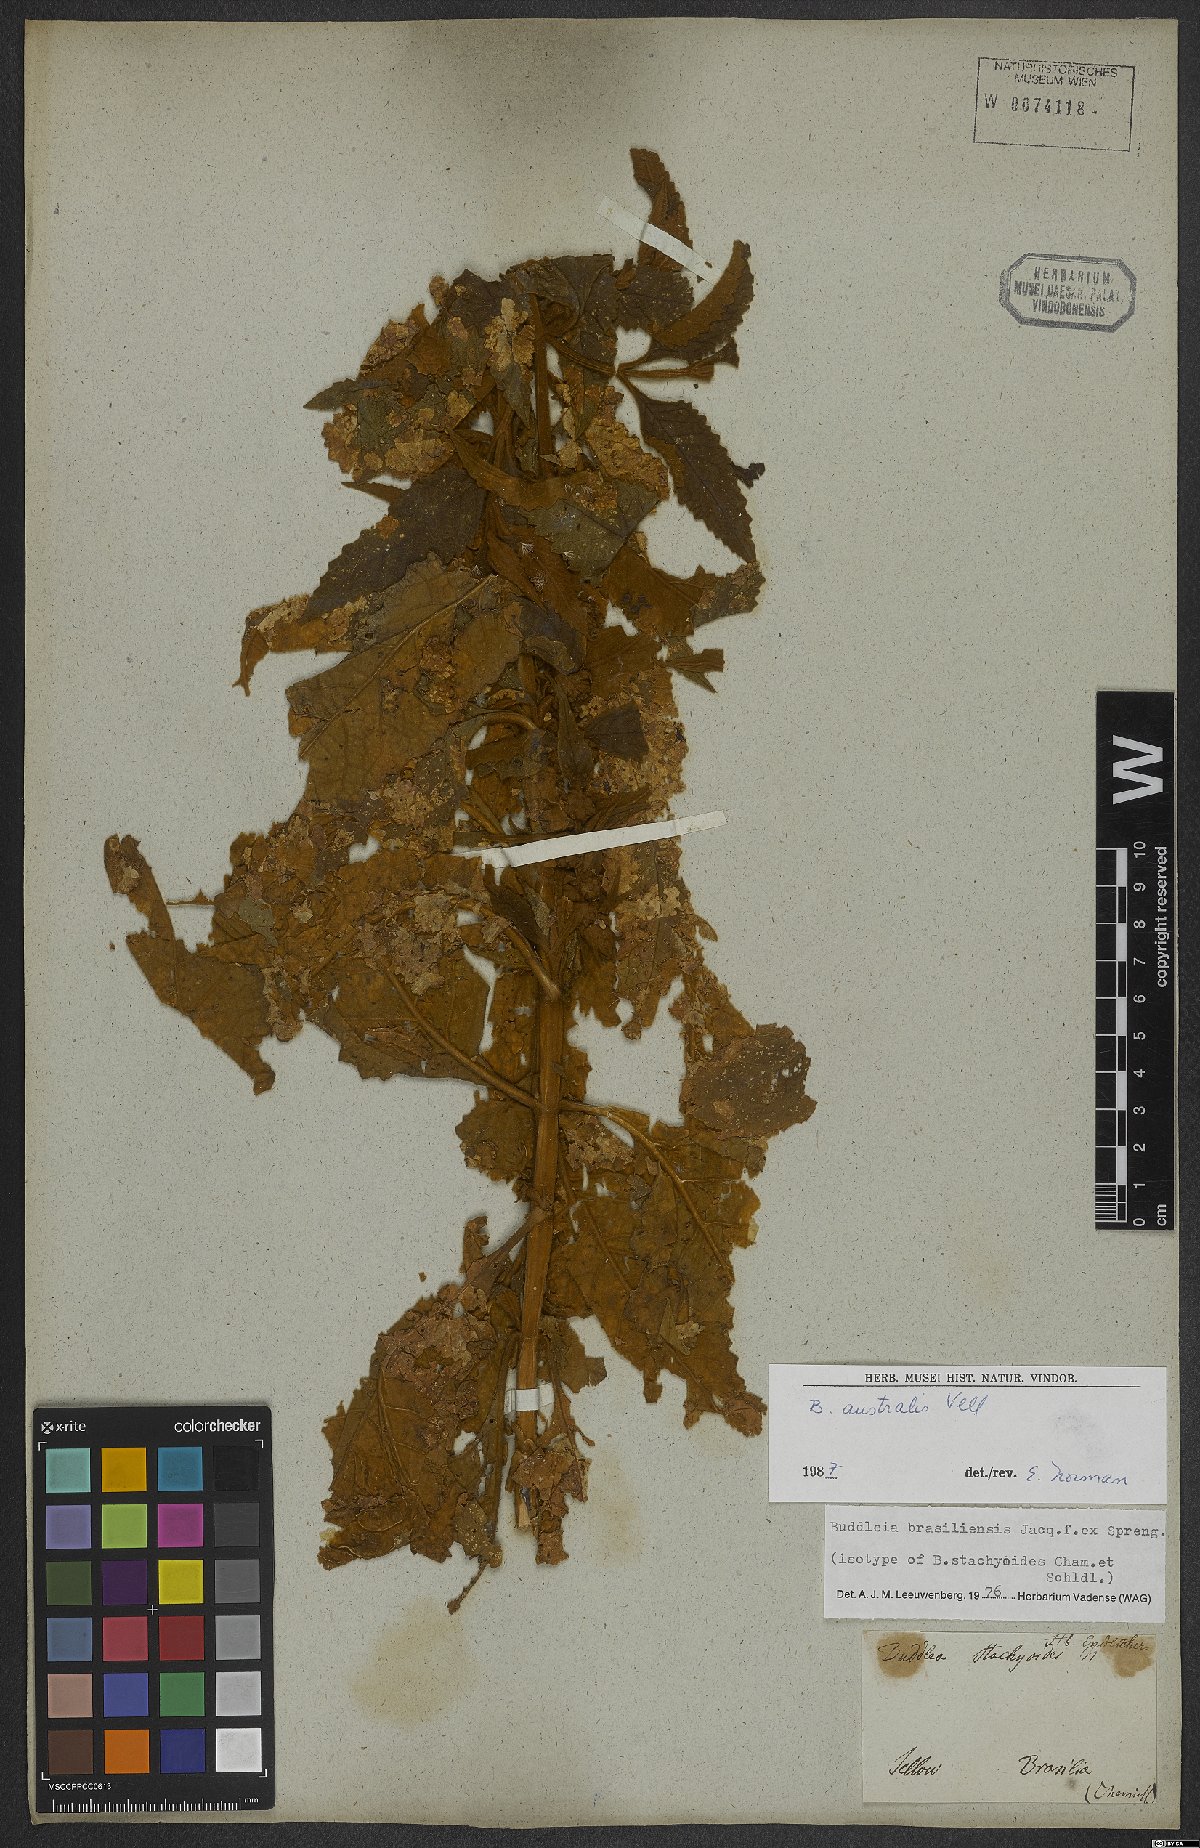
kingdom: Plantae
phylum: Tracheophyta
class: Magnoliopsida
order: Lamiales
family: Scrophulariaceae
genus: Buddleja
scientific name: Buddleja stachyoides
